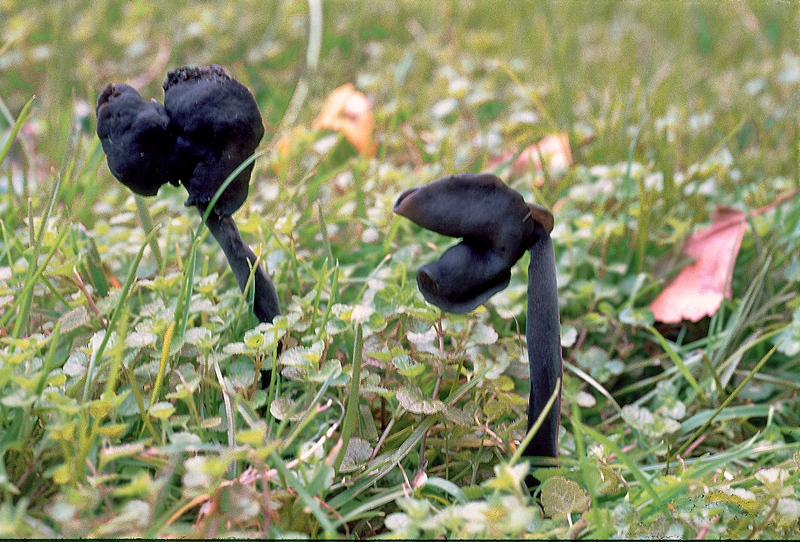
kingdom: Fungi
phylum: Ascomycota
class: Pezizomycetes
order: Pezizales
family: Helvellaceae
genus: Helvella
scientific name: Helvella atra
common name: sort foldhat
